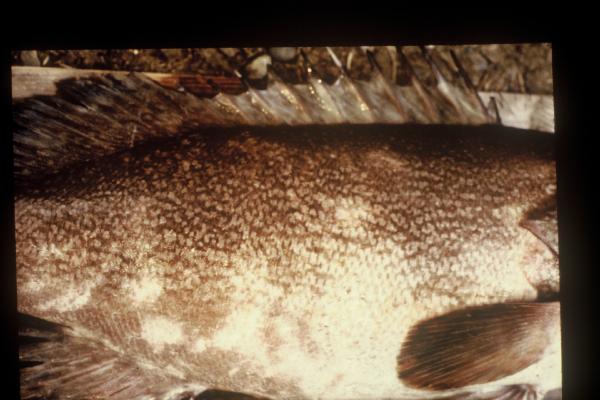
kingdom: Animalia
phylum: Chordata
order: Perciformes
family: Serranidae
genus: Epinephelus
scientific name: Epinephelus bruneus
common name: Longtooth grouper
